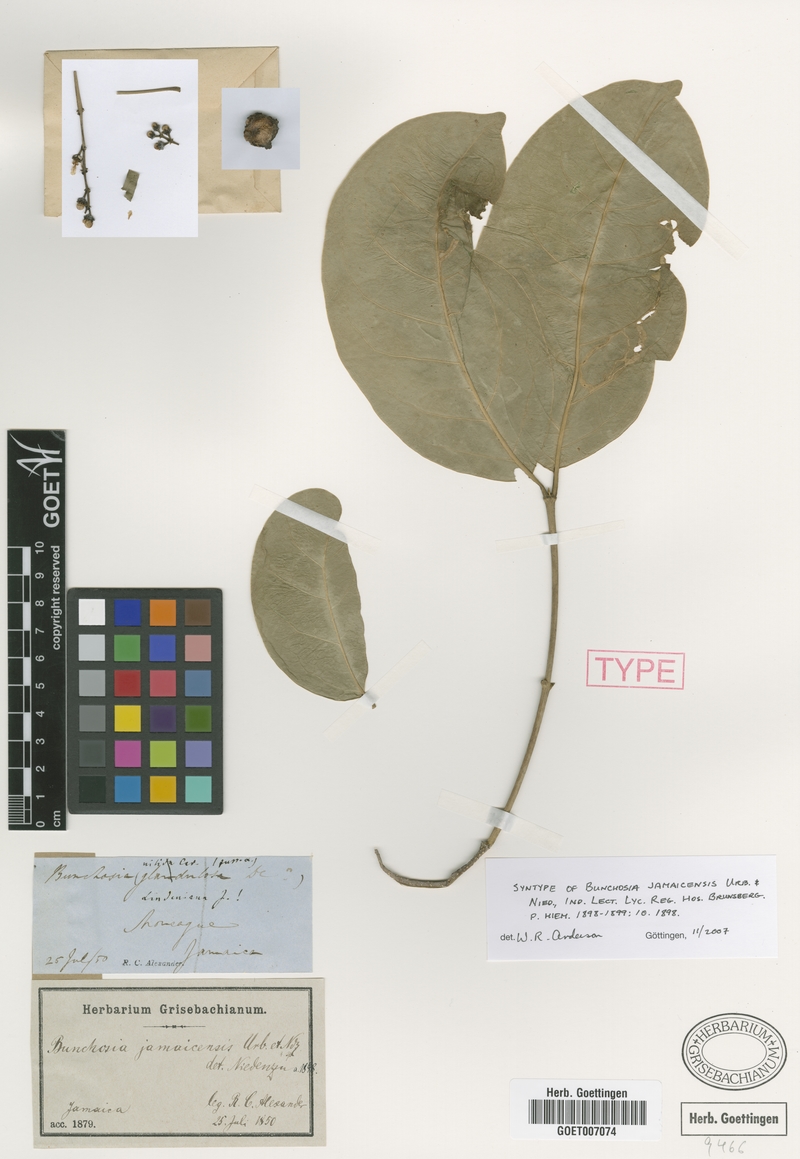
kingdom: Plantae
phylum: Tracheophyta
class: Magnoliopsida
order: Malpighiales
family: Malpighiaceae
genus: Bunchosia
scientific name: Bunchosia jamaicensis
